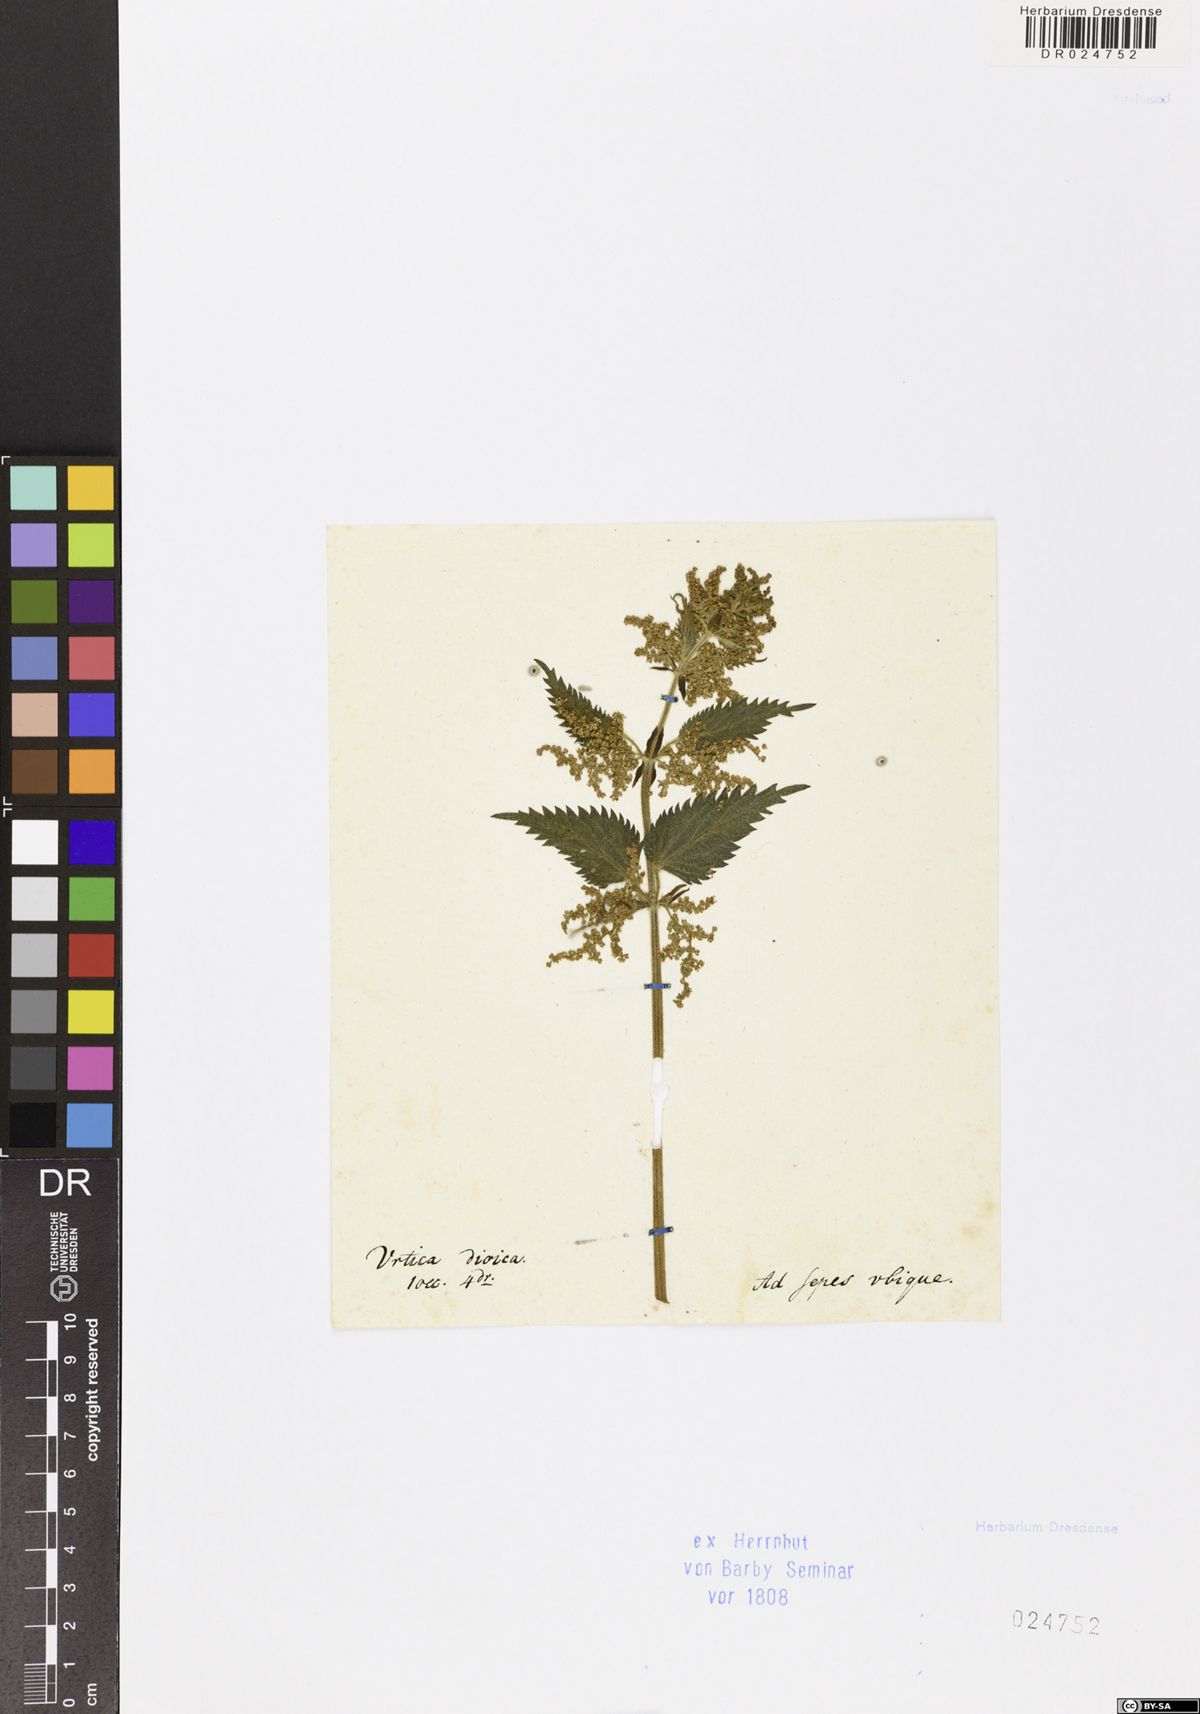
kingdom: Plantae
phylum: Tracheophyta
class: Magnoliopsida
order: Rosales
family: Urticaceae
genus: Urtica
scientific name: Urtica dioica
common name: Common nettle
